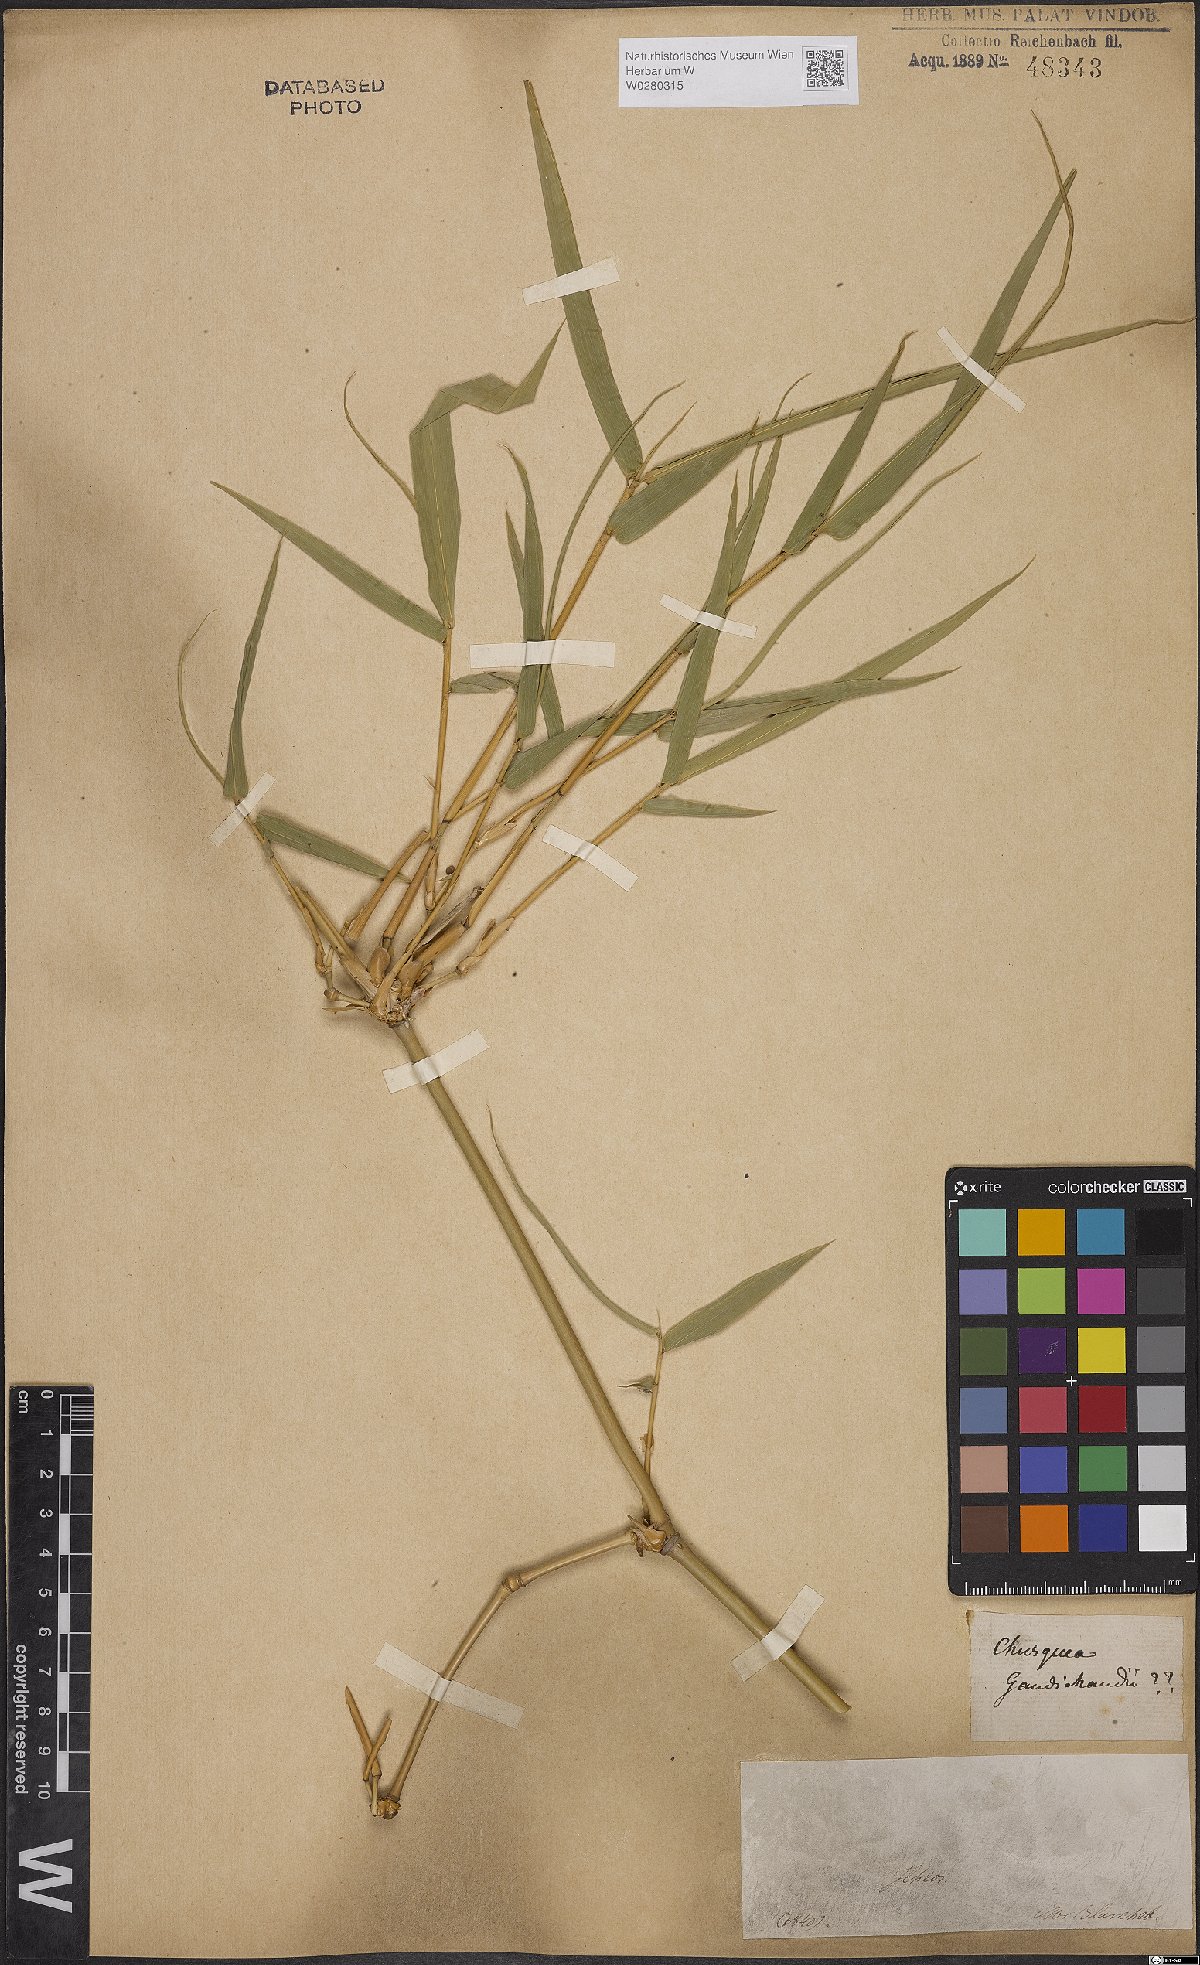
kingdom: Plantae
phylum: Tracheophyta
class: Liliopsida
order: Poales
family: Poaceae
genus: Chusquea
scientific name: Chusquea bambusoides
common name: Brazil scrambling bamboo
